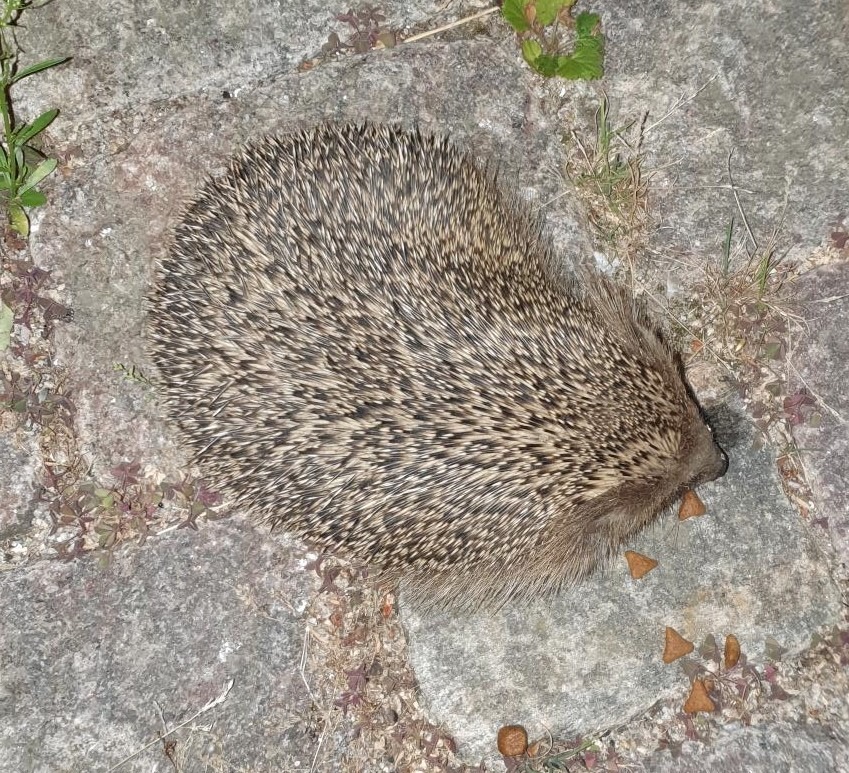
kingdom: Animalia
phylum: Chordata
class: Mammalia
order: Erinaceomorpha
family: Erinaceidae
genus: Erinaceus
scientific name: Erinaceus europaeus
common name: Pindsvin
